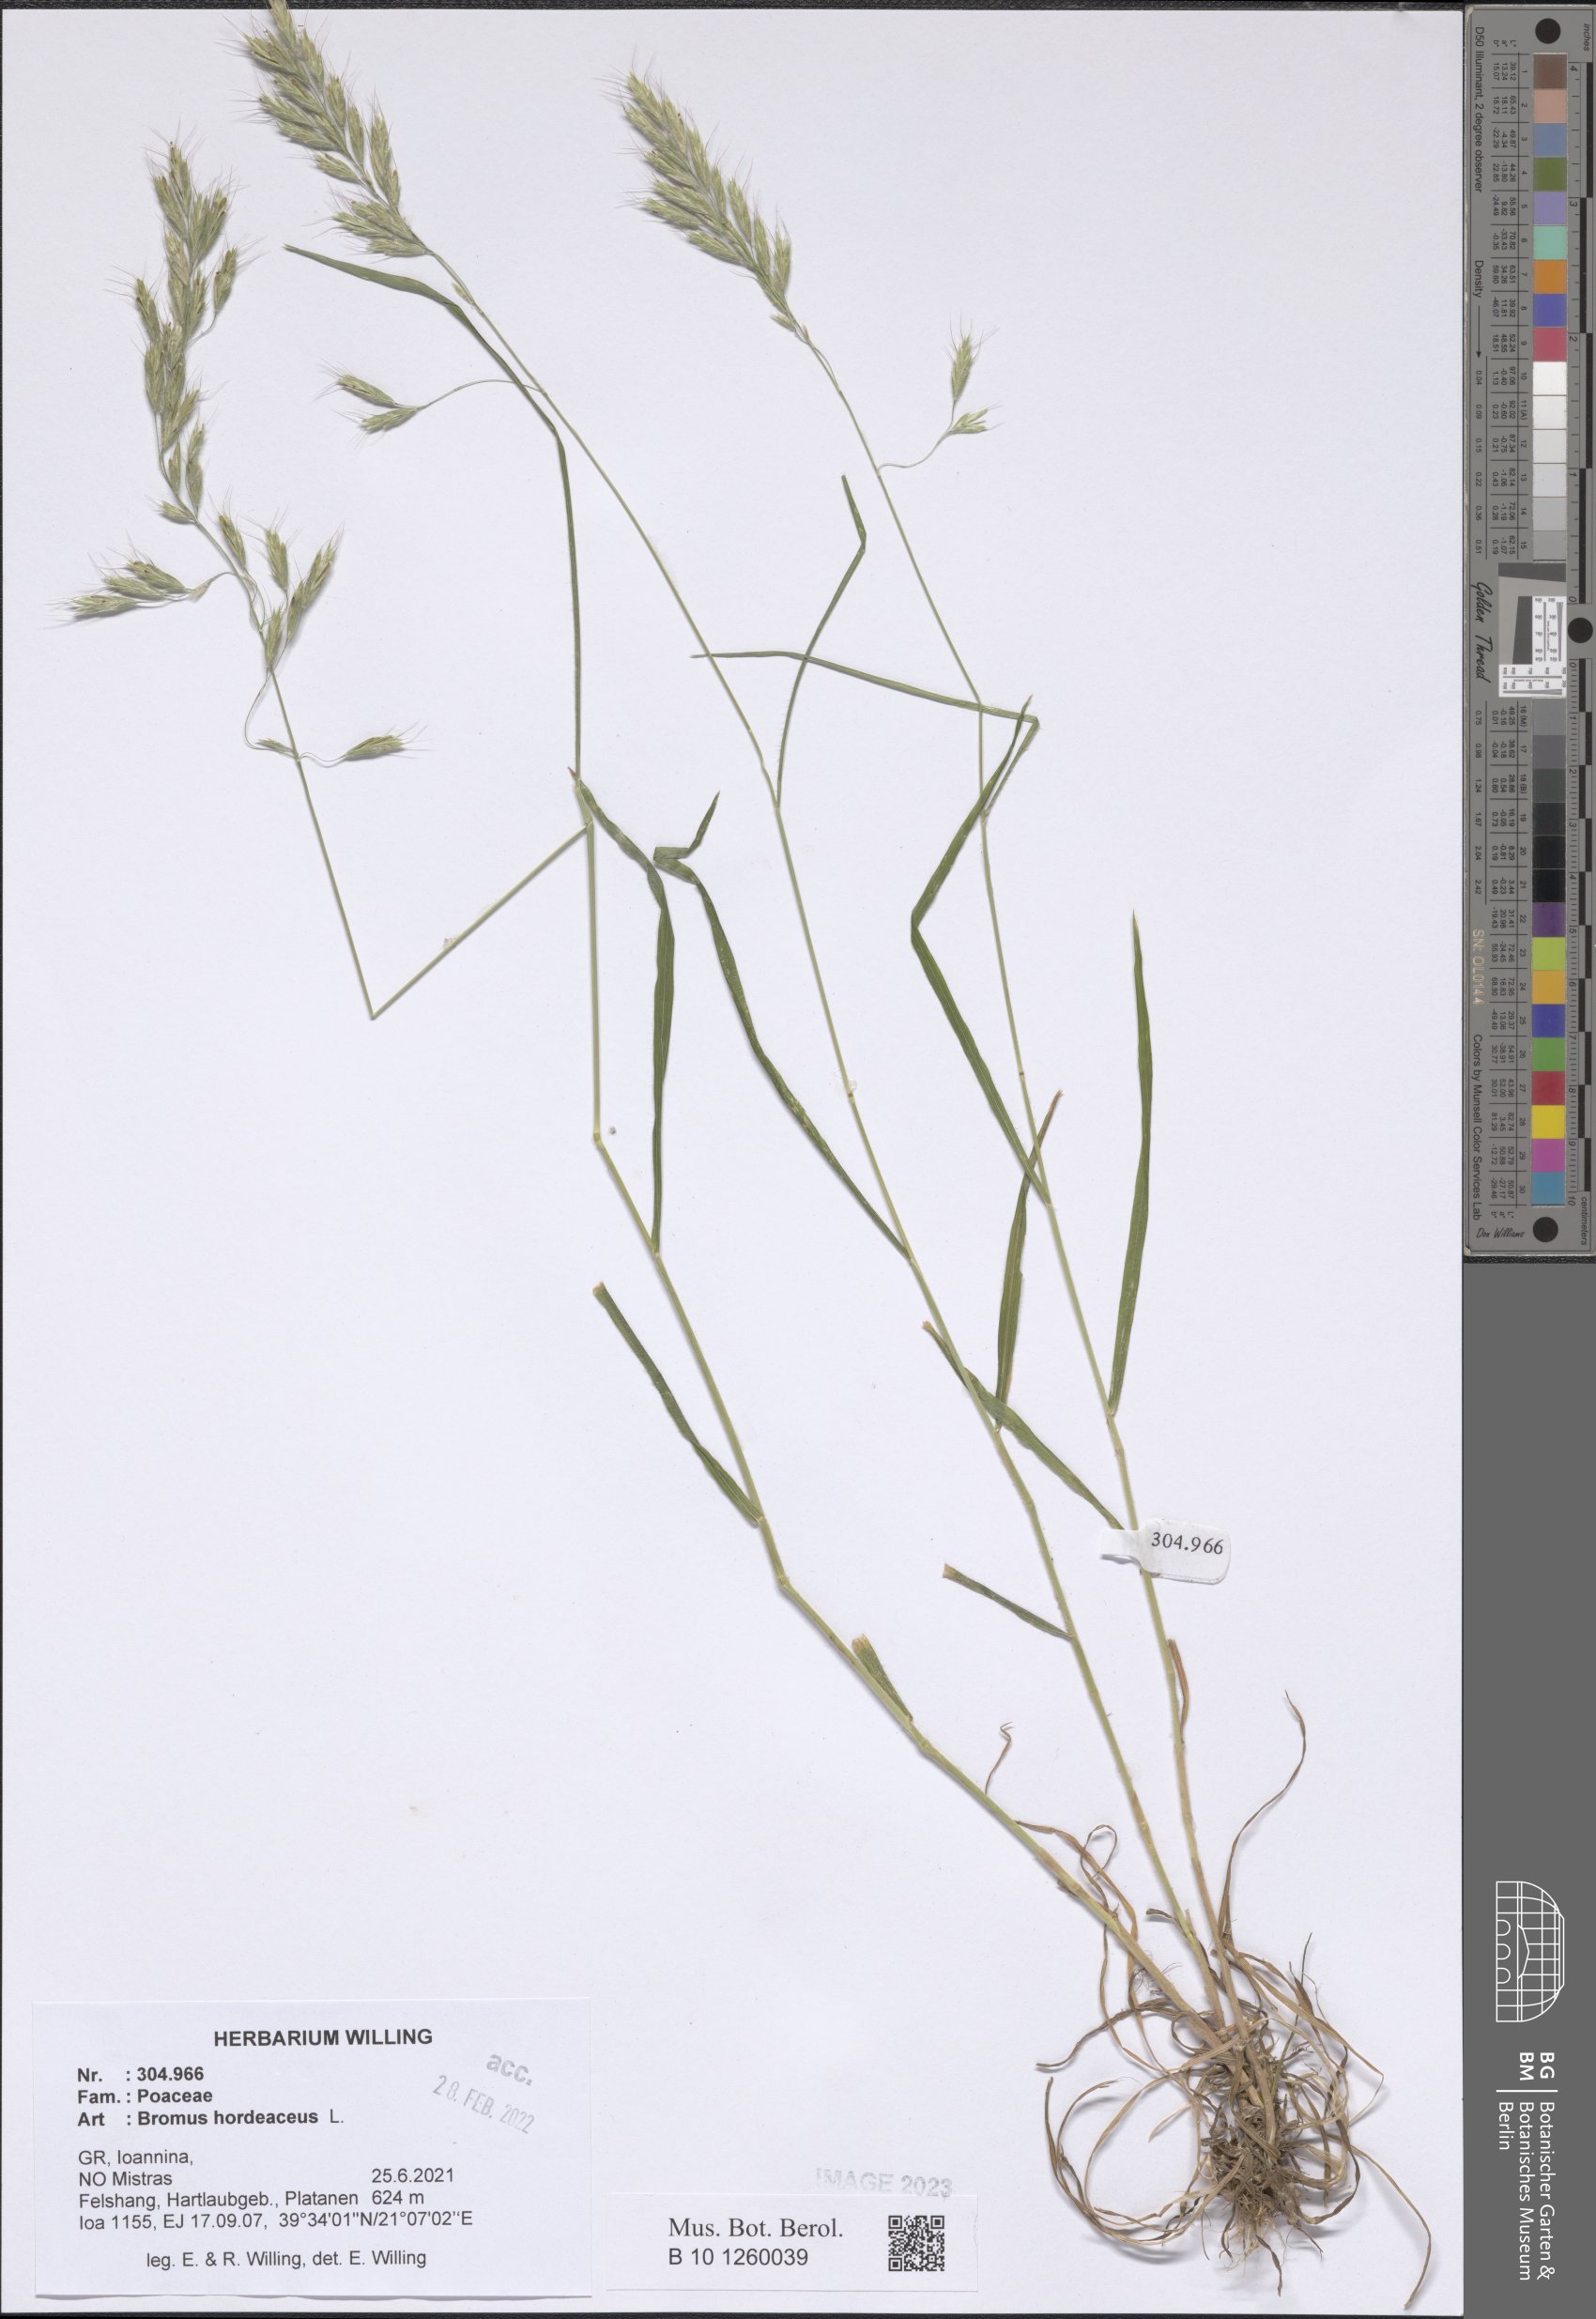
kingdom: Plantae
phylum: Tracheophyta
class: Liliopsida
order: Poales
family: Poaceae
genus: Bromus
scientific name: Bromus hordeaceus
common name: Soft brome
